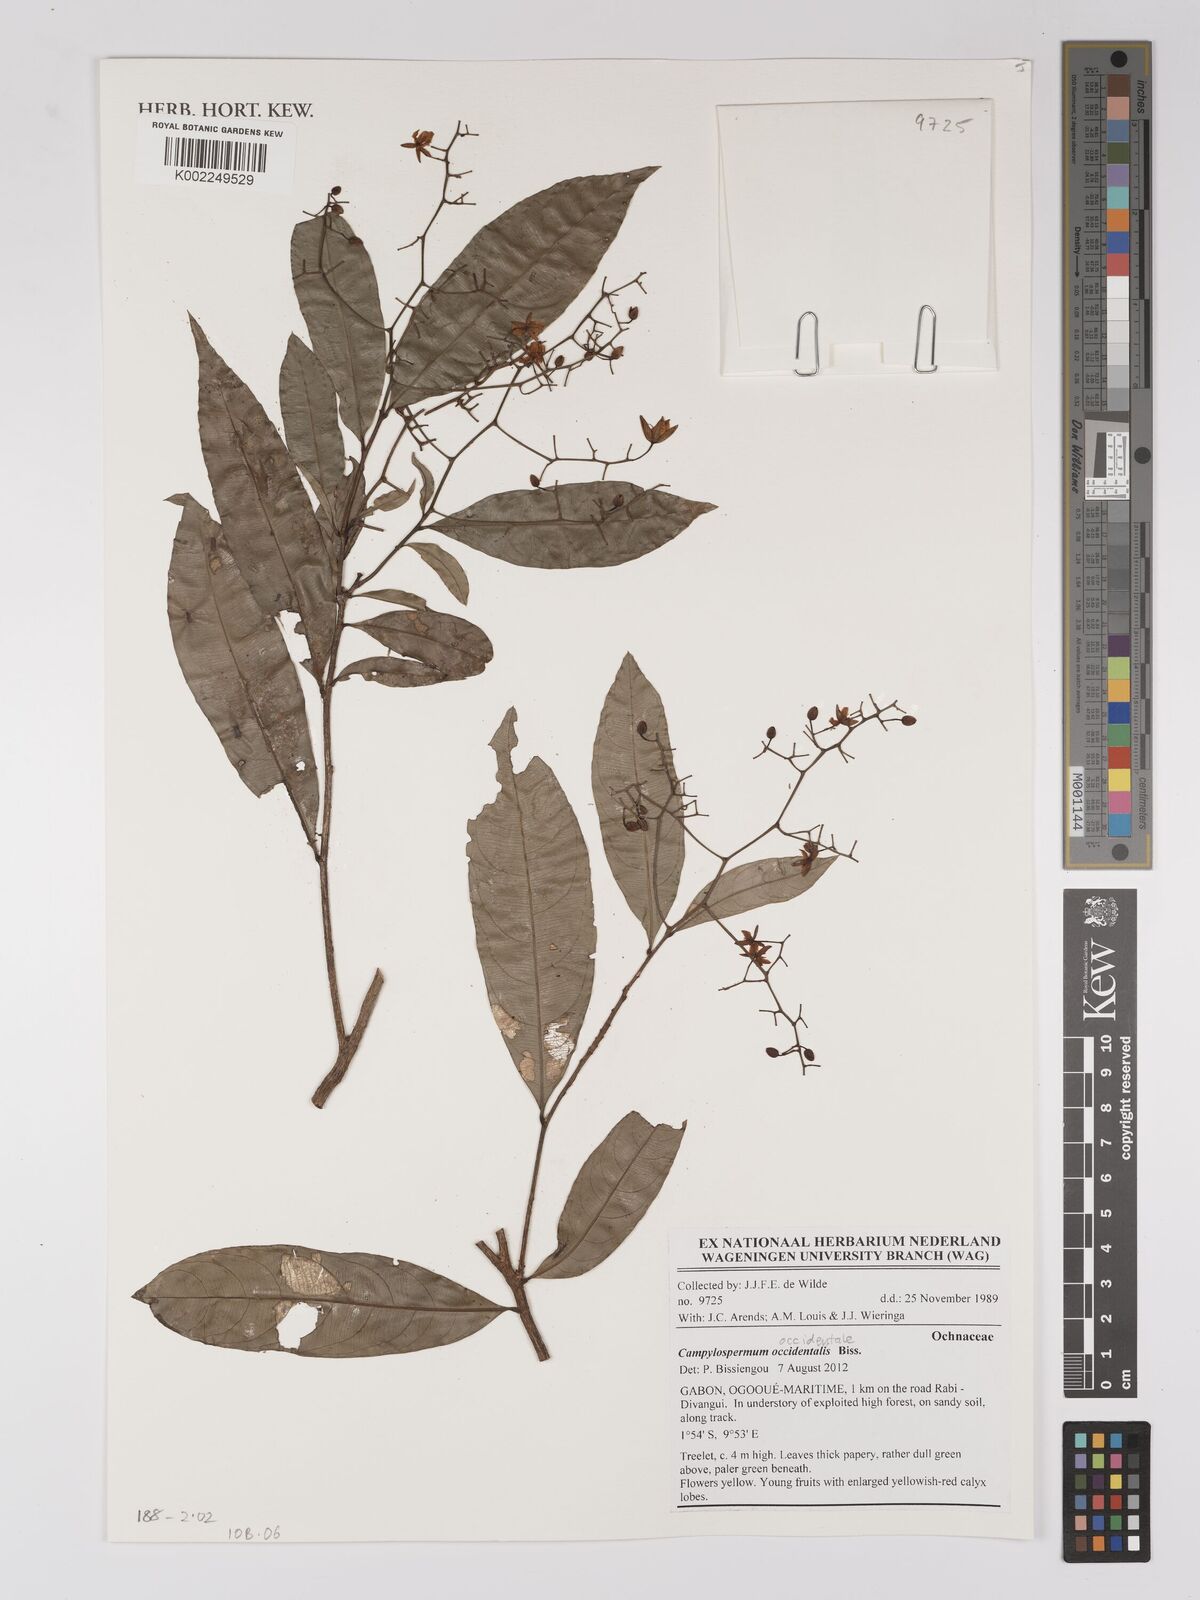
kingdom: Plantae
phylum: Tracheophyta
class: Magnoliopsida
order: Malpighiales
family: Ochnaceae
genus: Campylospermum
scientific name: Campylospermum occidentale
